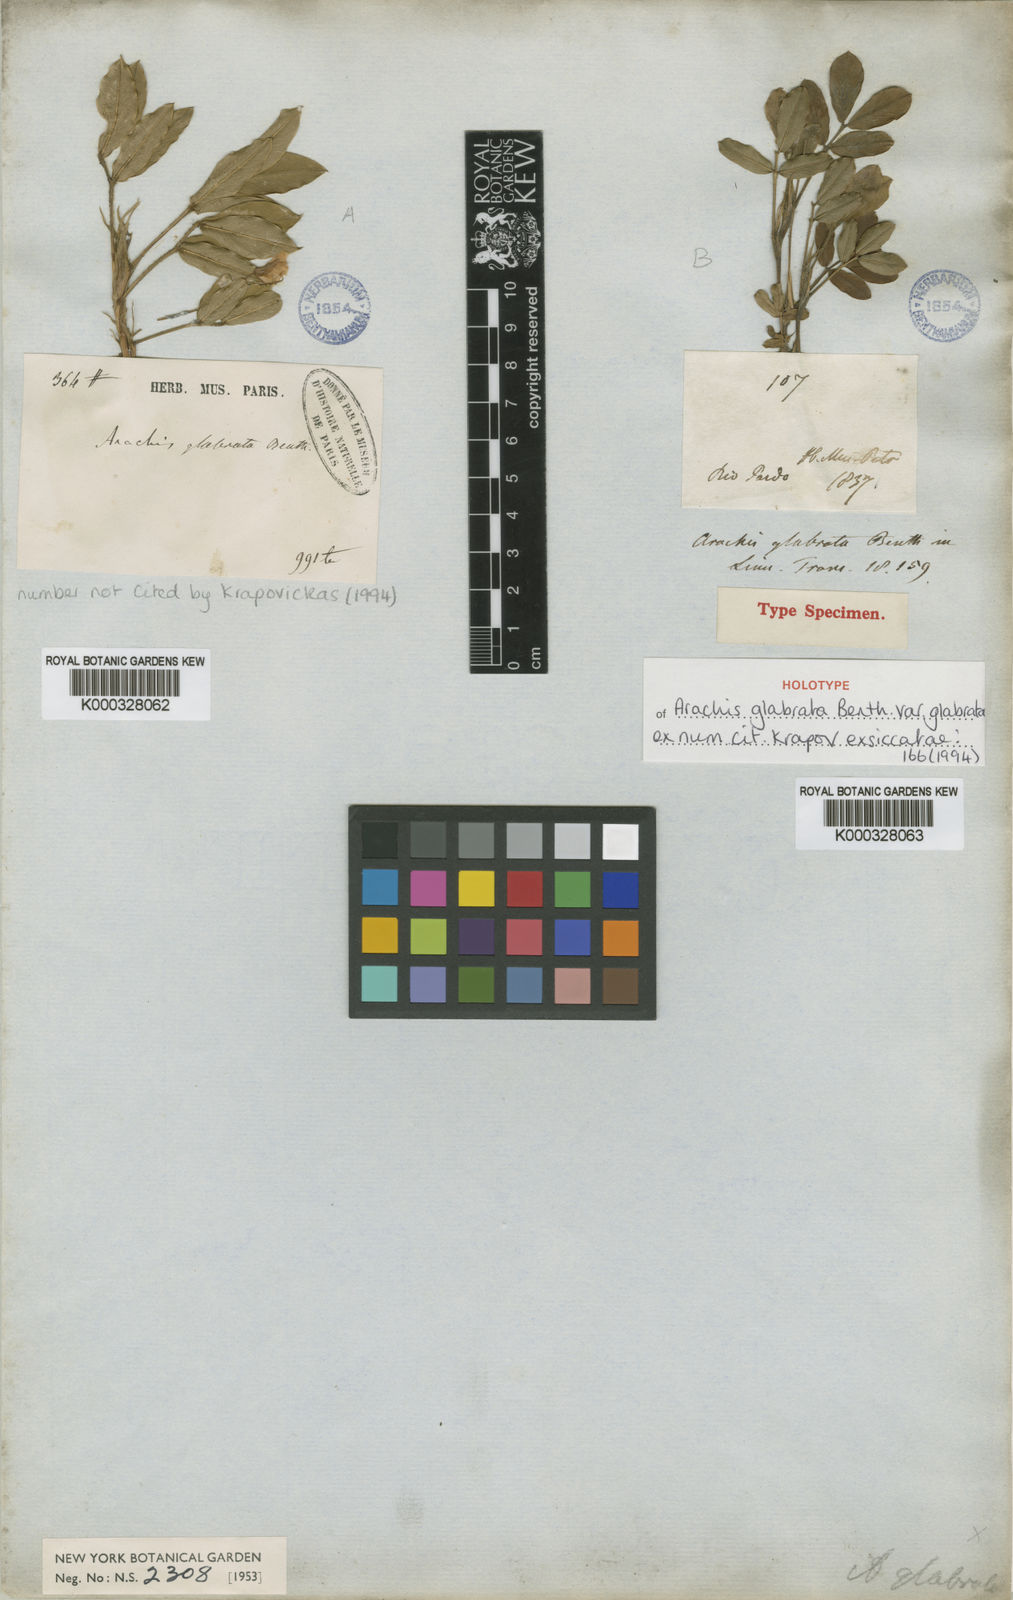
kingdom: Plantae
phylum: Tracheophyta
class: Magnoliopsida
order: Fabales
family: Fabaceae
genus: Arachis
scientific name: Arachis glabrata
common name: Rhizoma peanut
